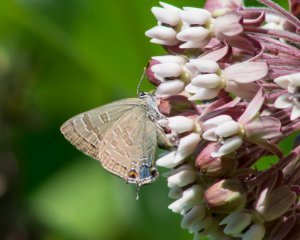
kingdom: Animalia
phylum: Arthropoda
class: Insecta
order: Lepidoptera
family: Lycaenidae
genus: Strymon
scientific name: Strymon caryaevorus
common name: Hickory Hairstreak
